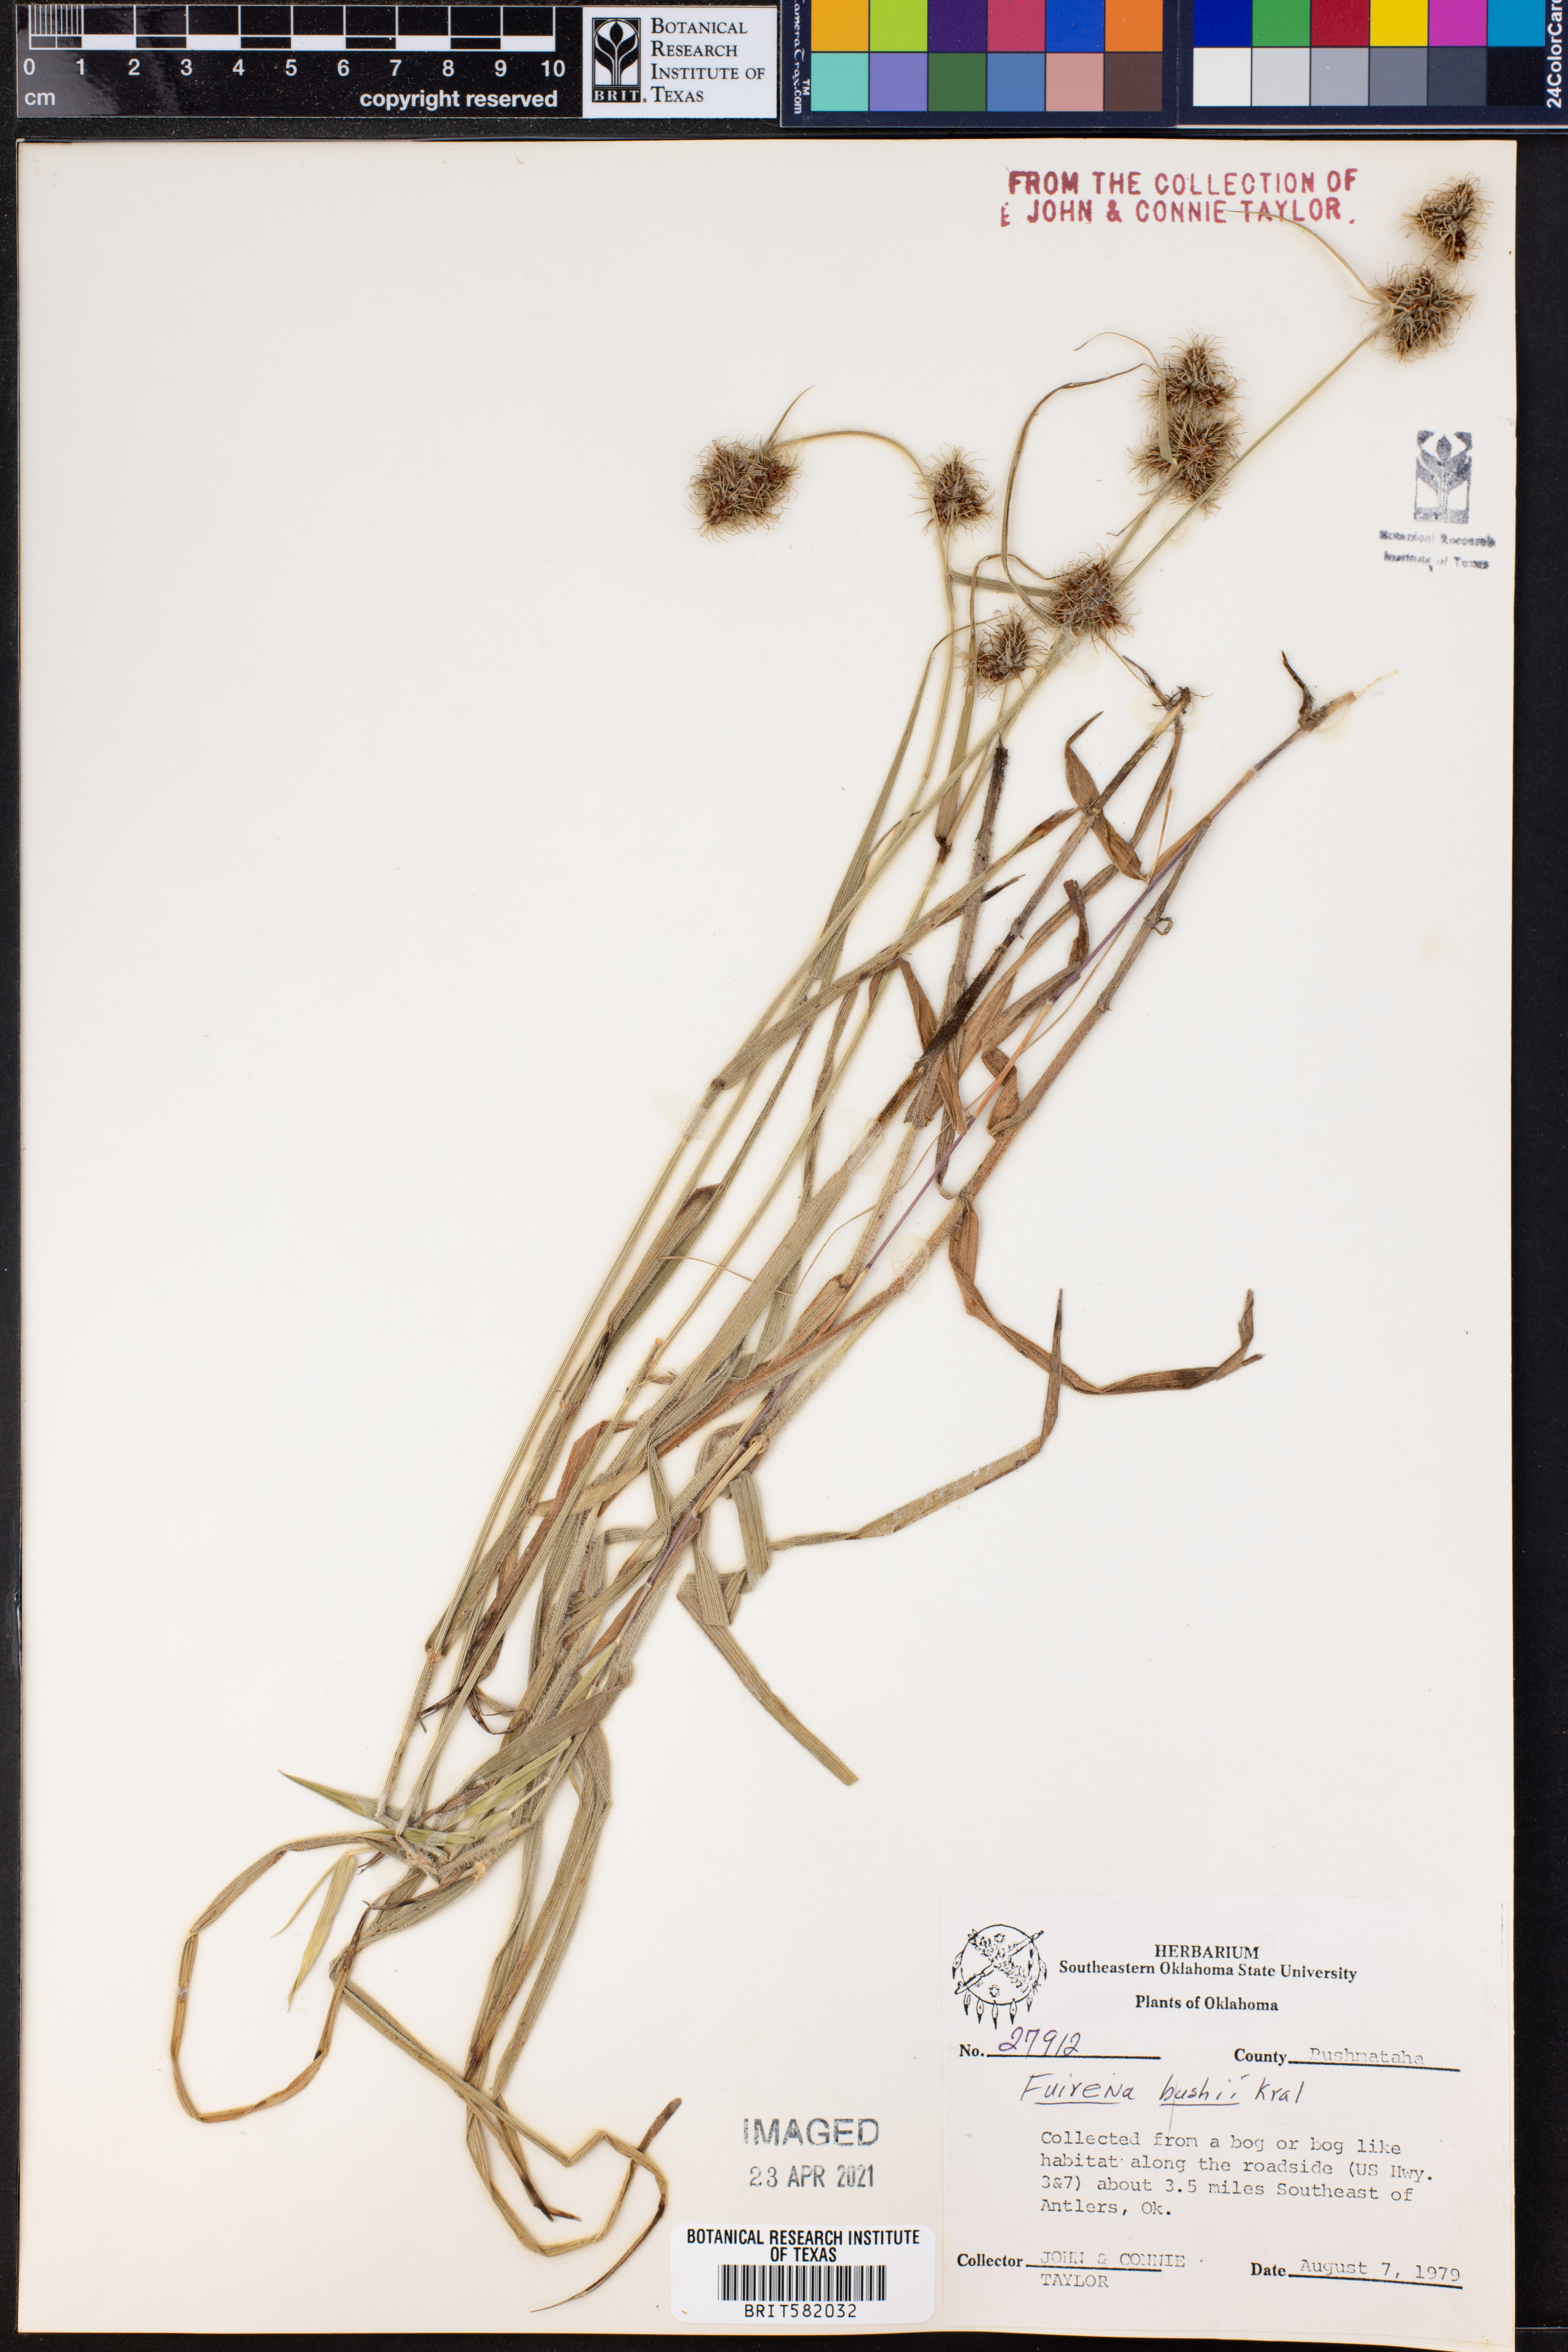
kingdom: Plantae
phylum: Tracheophyta
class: Liliopsida
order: Poales
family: Cyperaceae
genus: Fuirena
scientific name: Fuirena bushii
